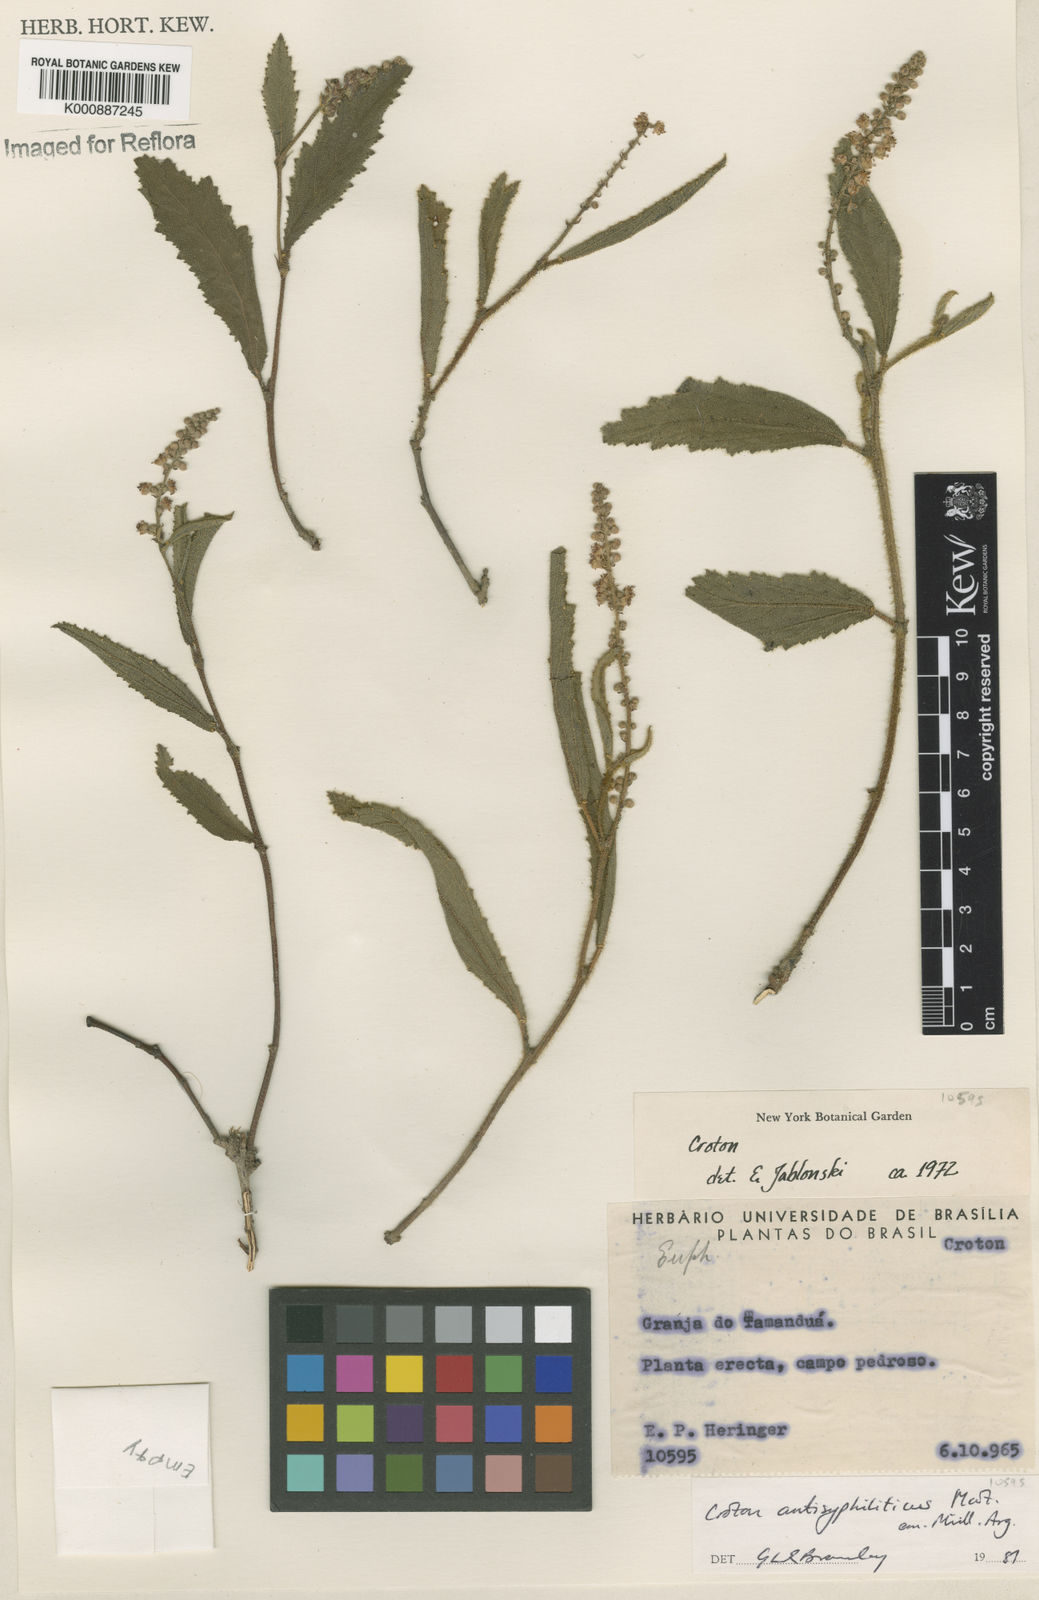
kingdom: Plantae
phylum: Tracheophyta
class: Magnoliopsida
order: Malpighiales
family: Euphorbiaceae
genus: Croton
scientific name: Croton antisyphiliticus
